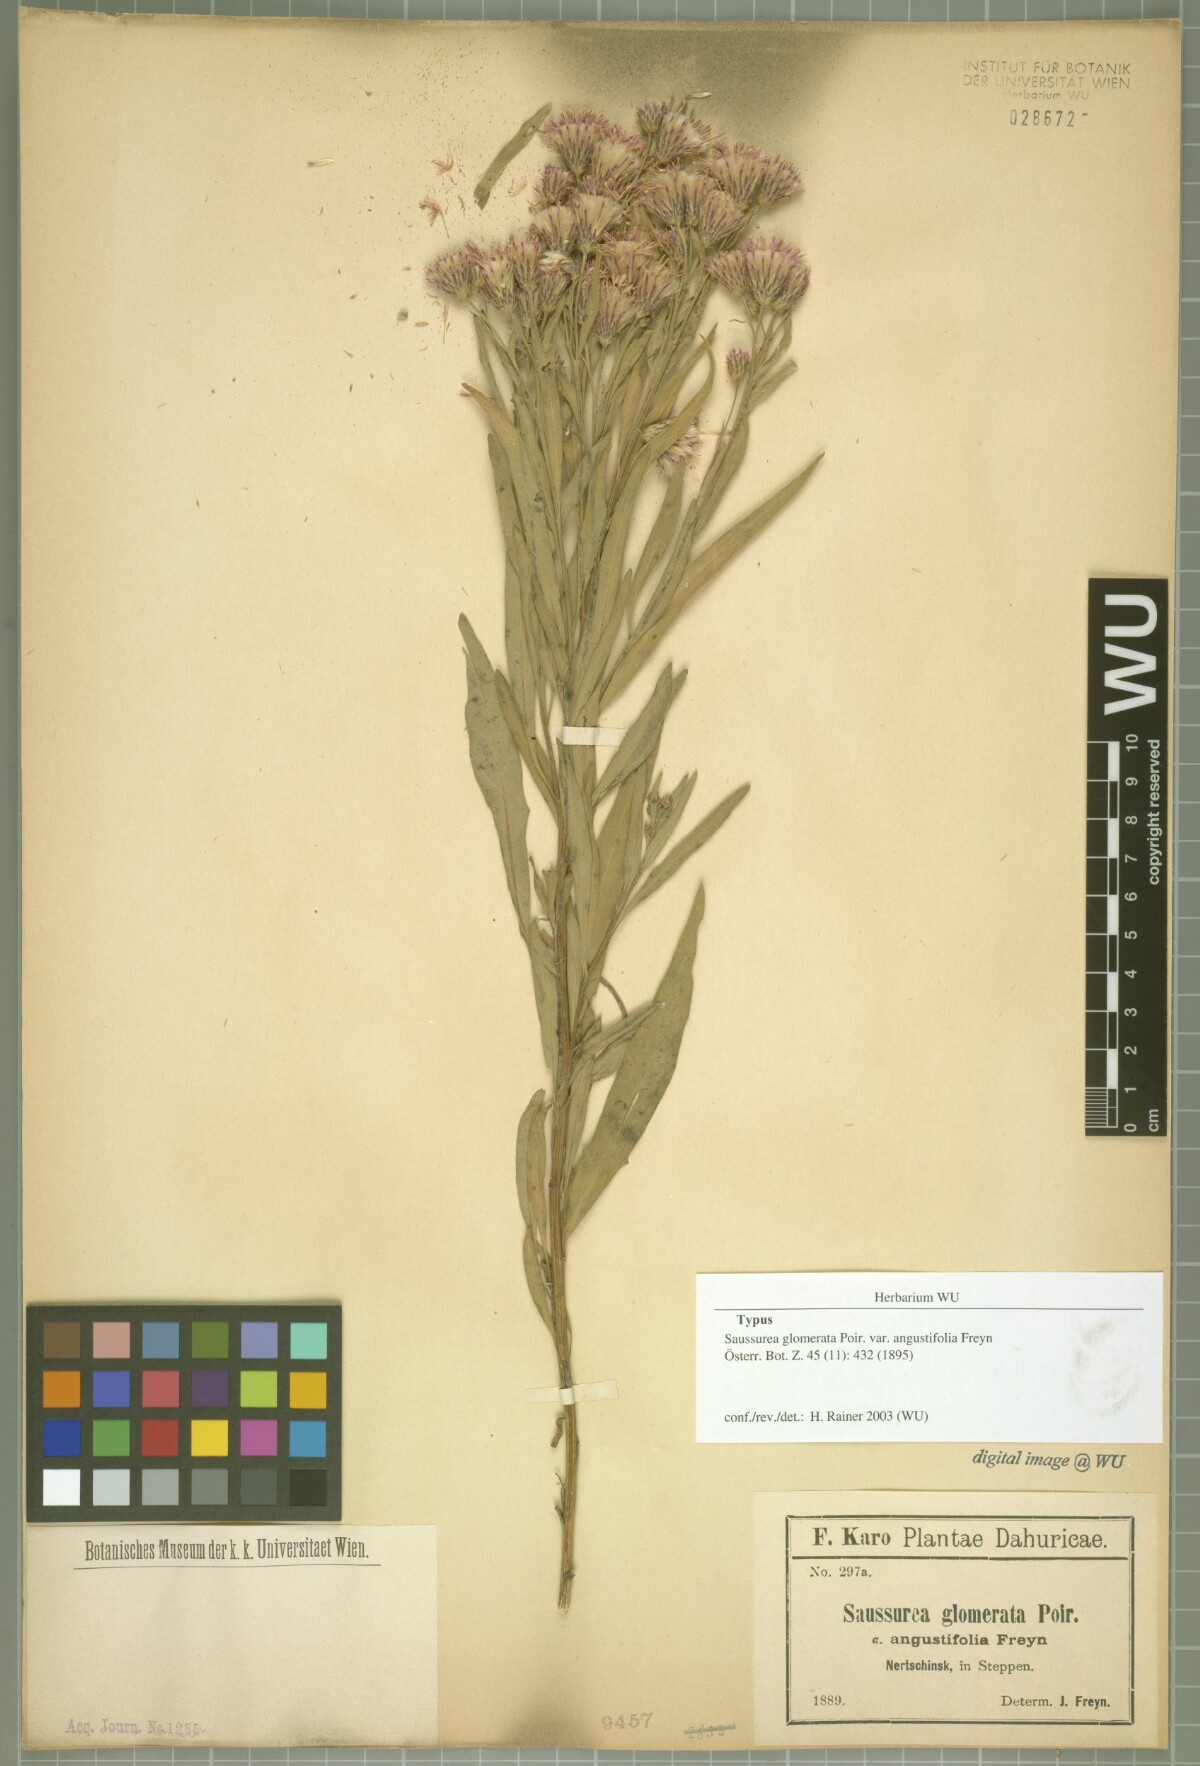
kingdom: Plantae
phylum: Tracheophyta
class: Magnoliopsida
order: Asterales
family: Asteraceae
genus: Saussurea
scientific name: Saussurea amara
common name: Alberta sawwort
